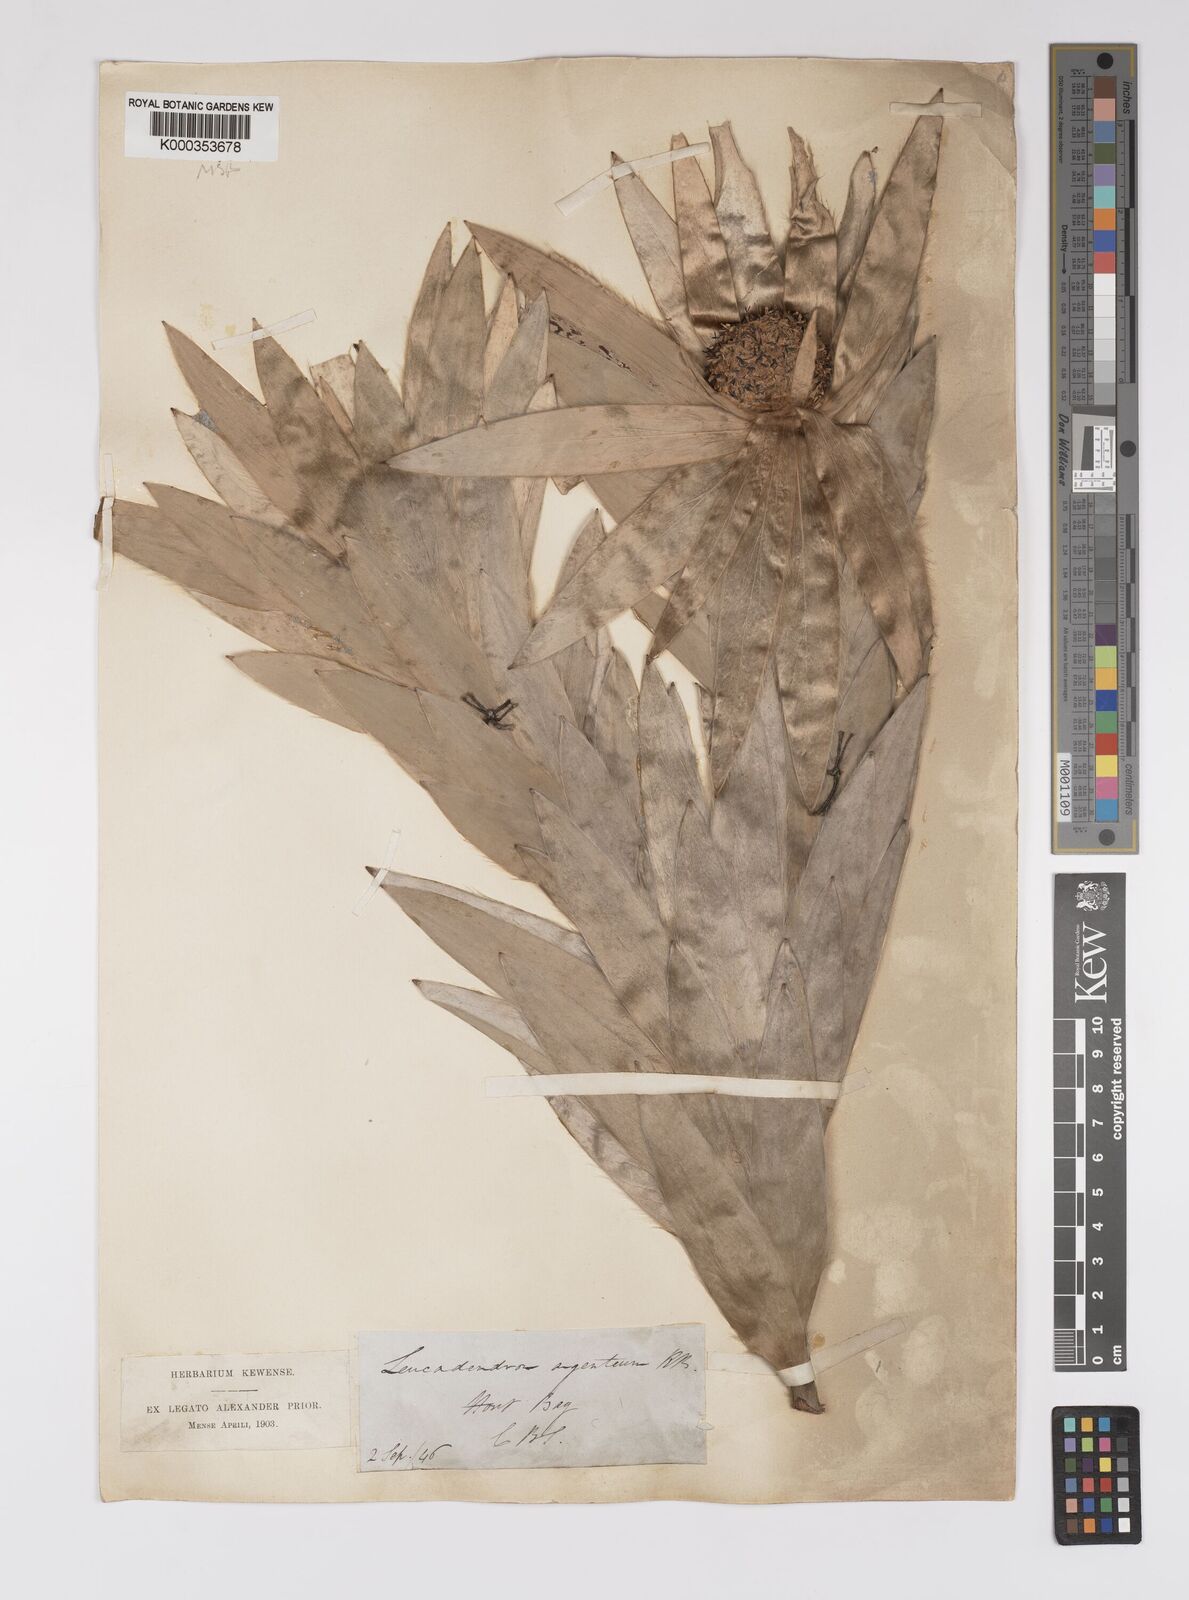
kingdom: Plantae
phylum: Tracheophyta
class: Magnoliopsida
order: Proteales
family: Proteaceae
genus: Leucadendron
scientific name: Leucadendron argenteum
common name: Cape silver tree
